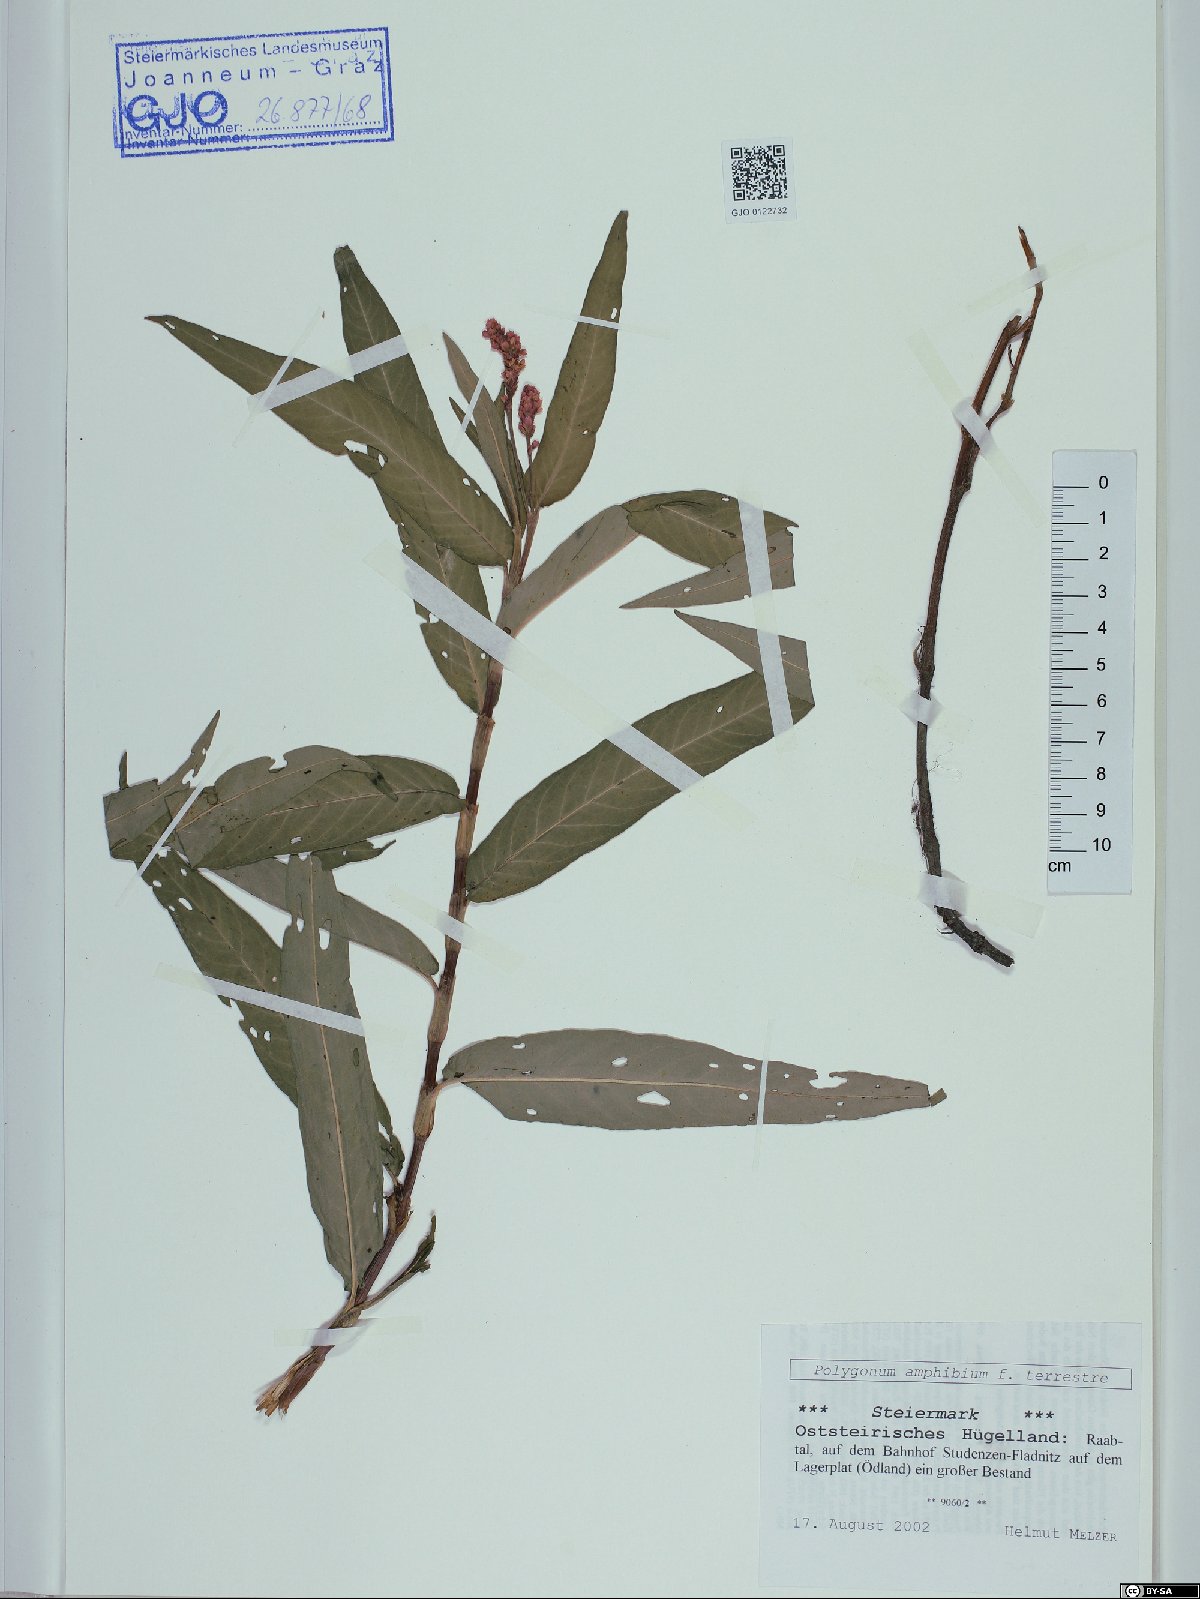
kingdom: Plantae
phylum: Tracheophyta
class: Magnoliopsida
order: Caryophyllales
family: Polygonaceae
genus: Persicaria
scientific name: Persicaria amphibia
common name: Amphibious bistort
